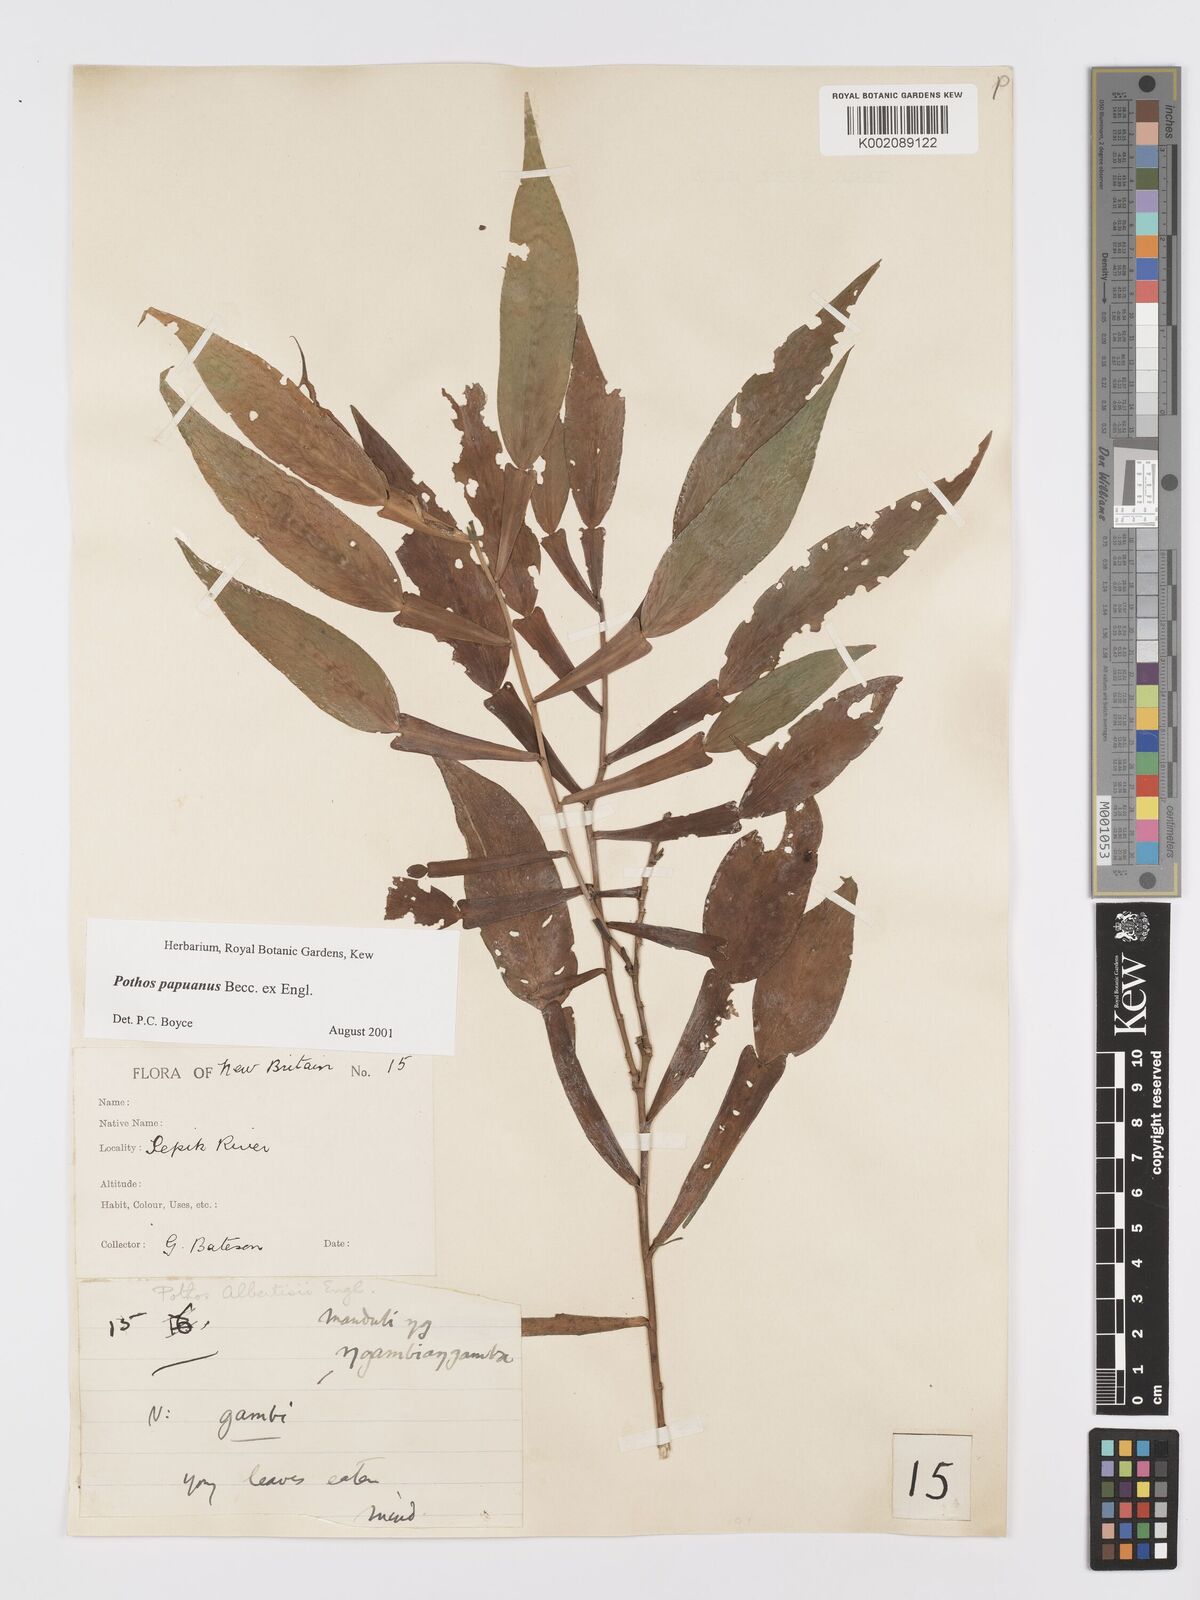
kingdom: Plantae
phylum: Tracheophyta
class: Liliopsida
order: Alismatales
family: Araceae
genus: Pothos
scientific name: Pothos papuanus
